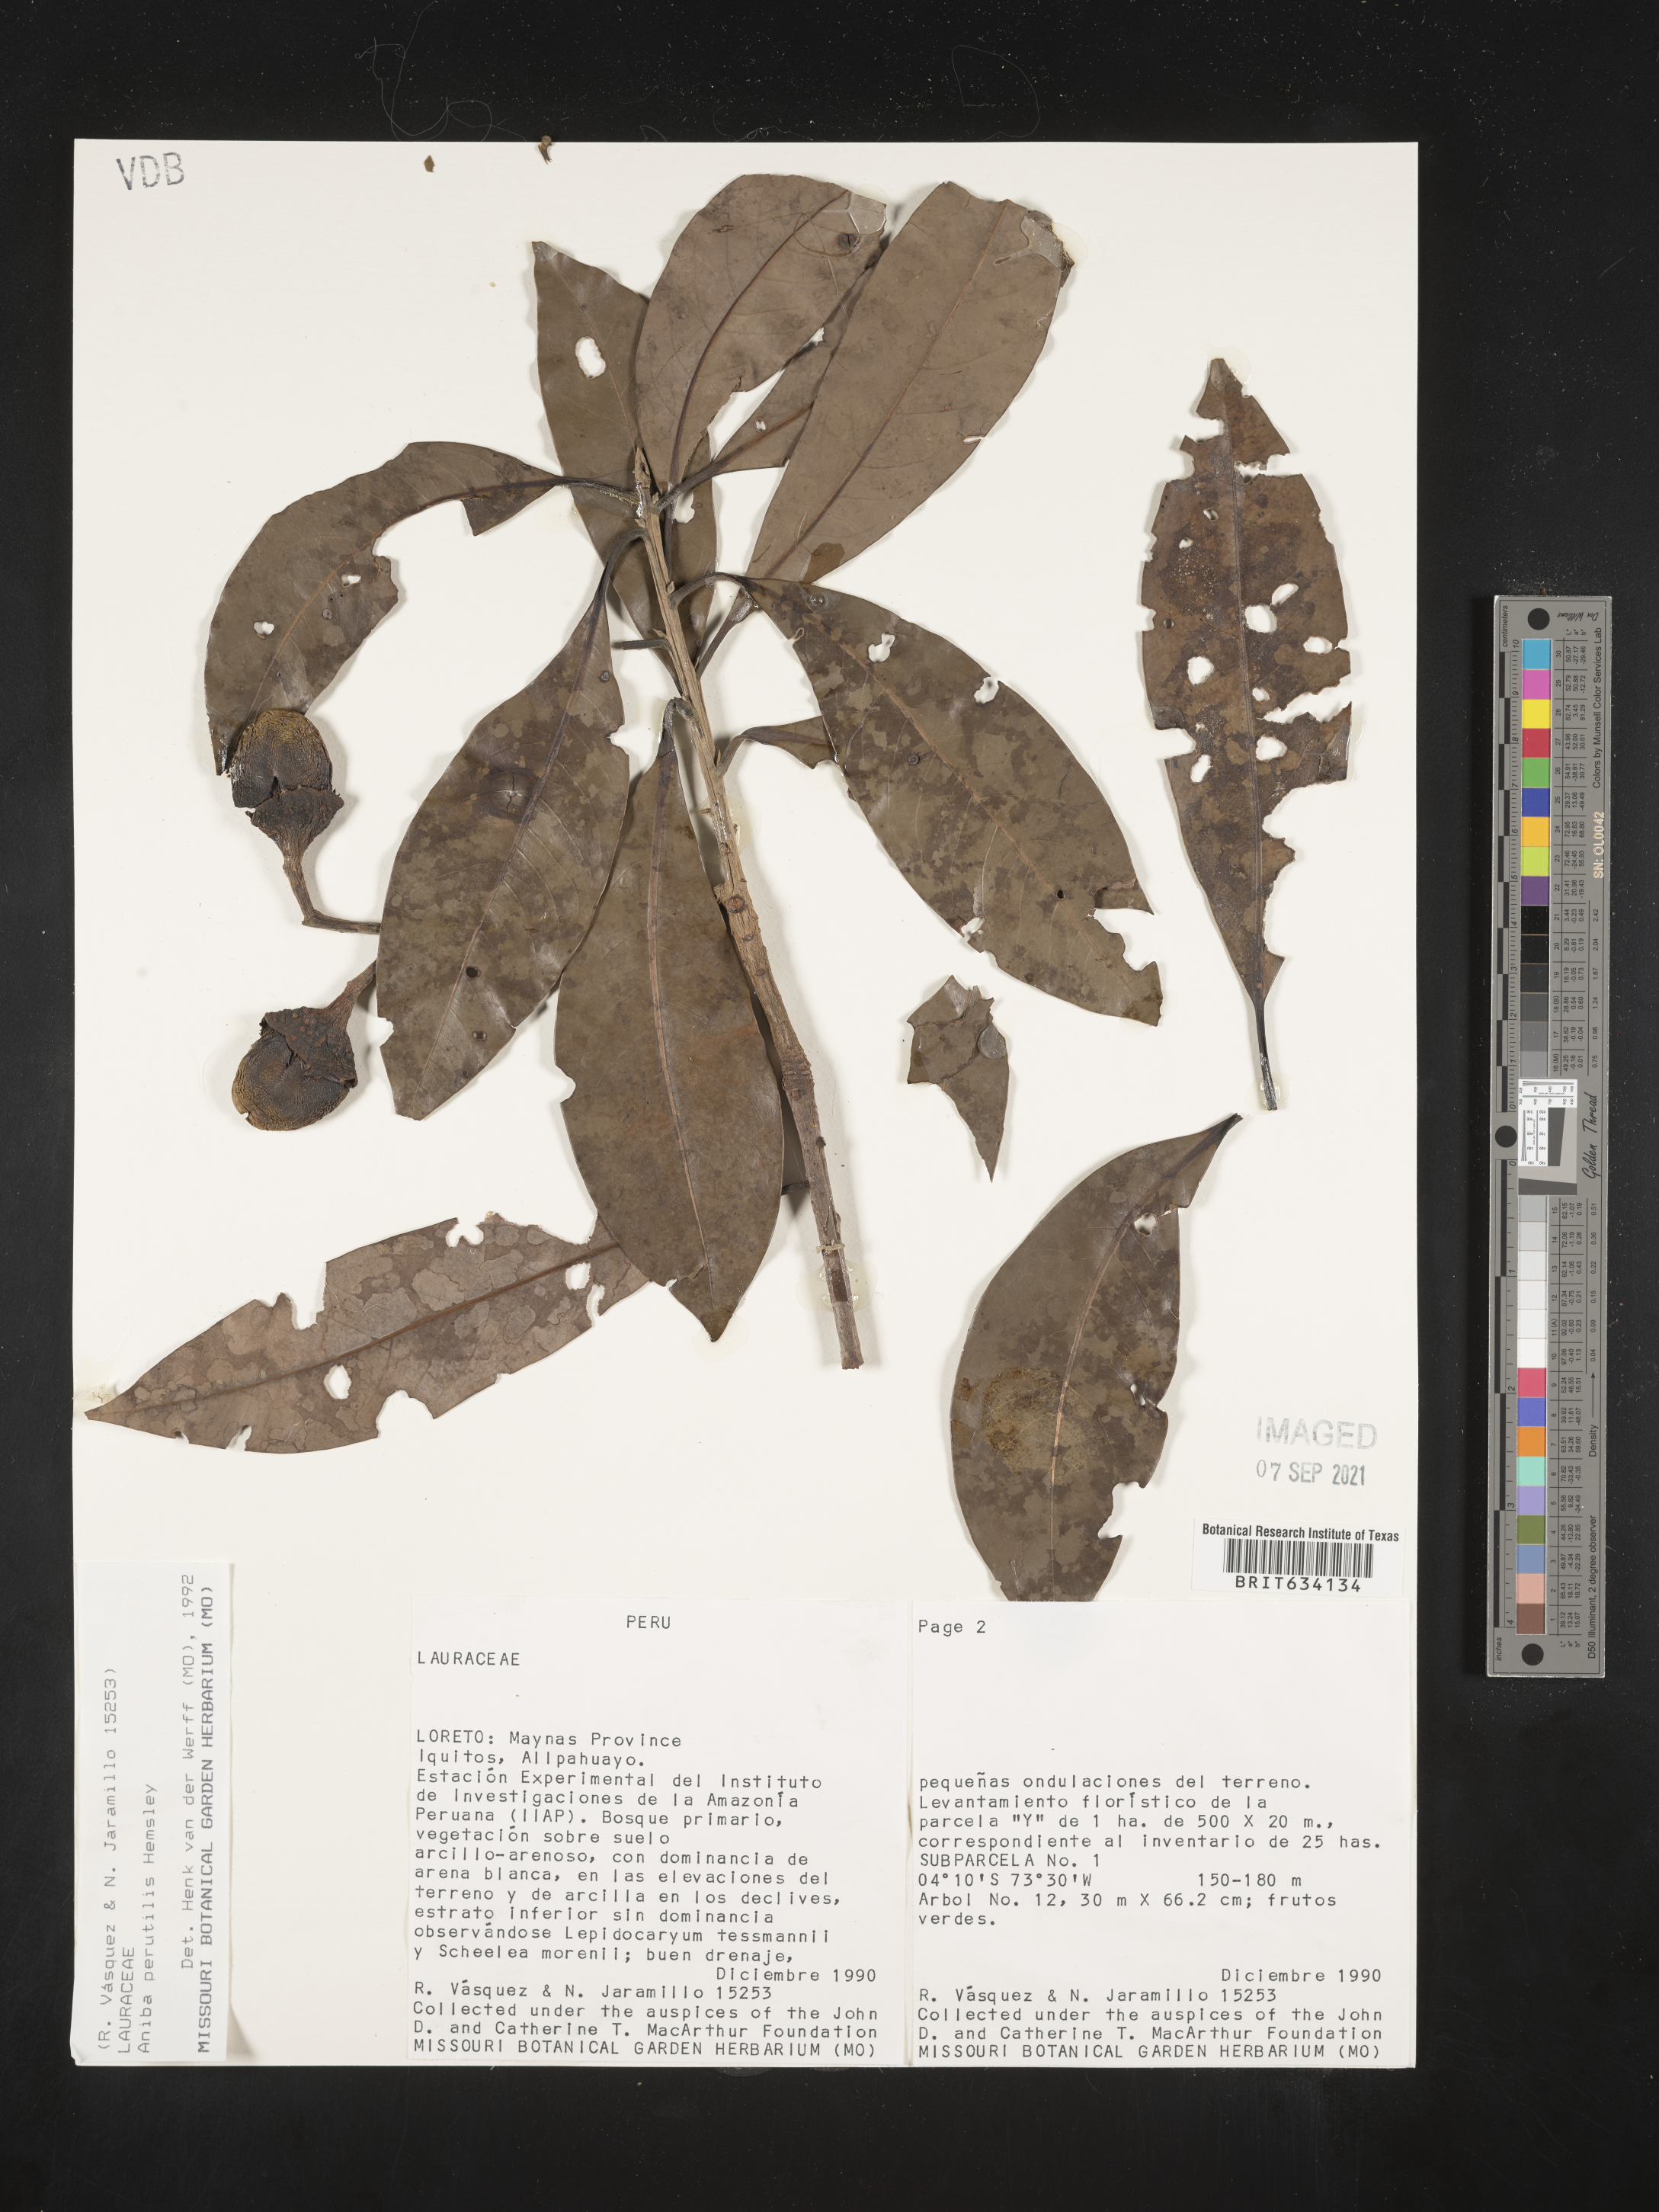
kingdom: Plantae
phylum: Tracheophyta
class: Magnoliopsida
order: Laurales
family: Lauraceae
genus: Aniba
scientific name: Aniba
